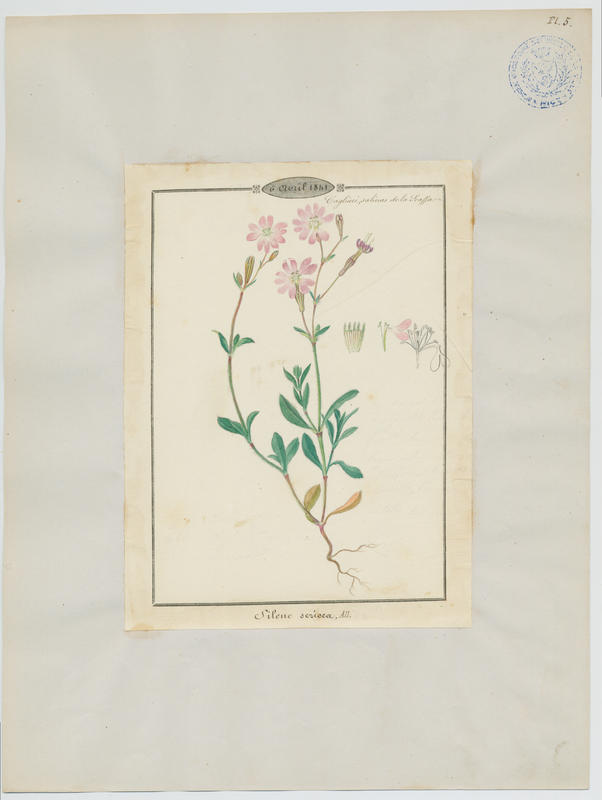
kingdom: Plantae
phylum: Tracheophyta
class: Magnoliopsida
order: Caryophyllales
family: Caryophyllaceae
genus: Silene
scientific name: Silene sericea
